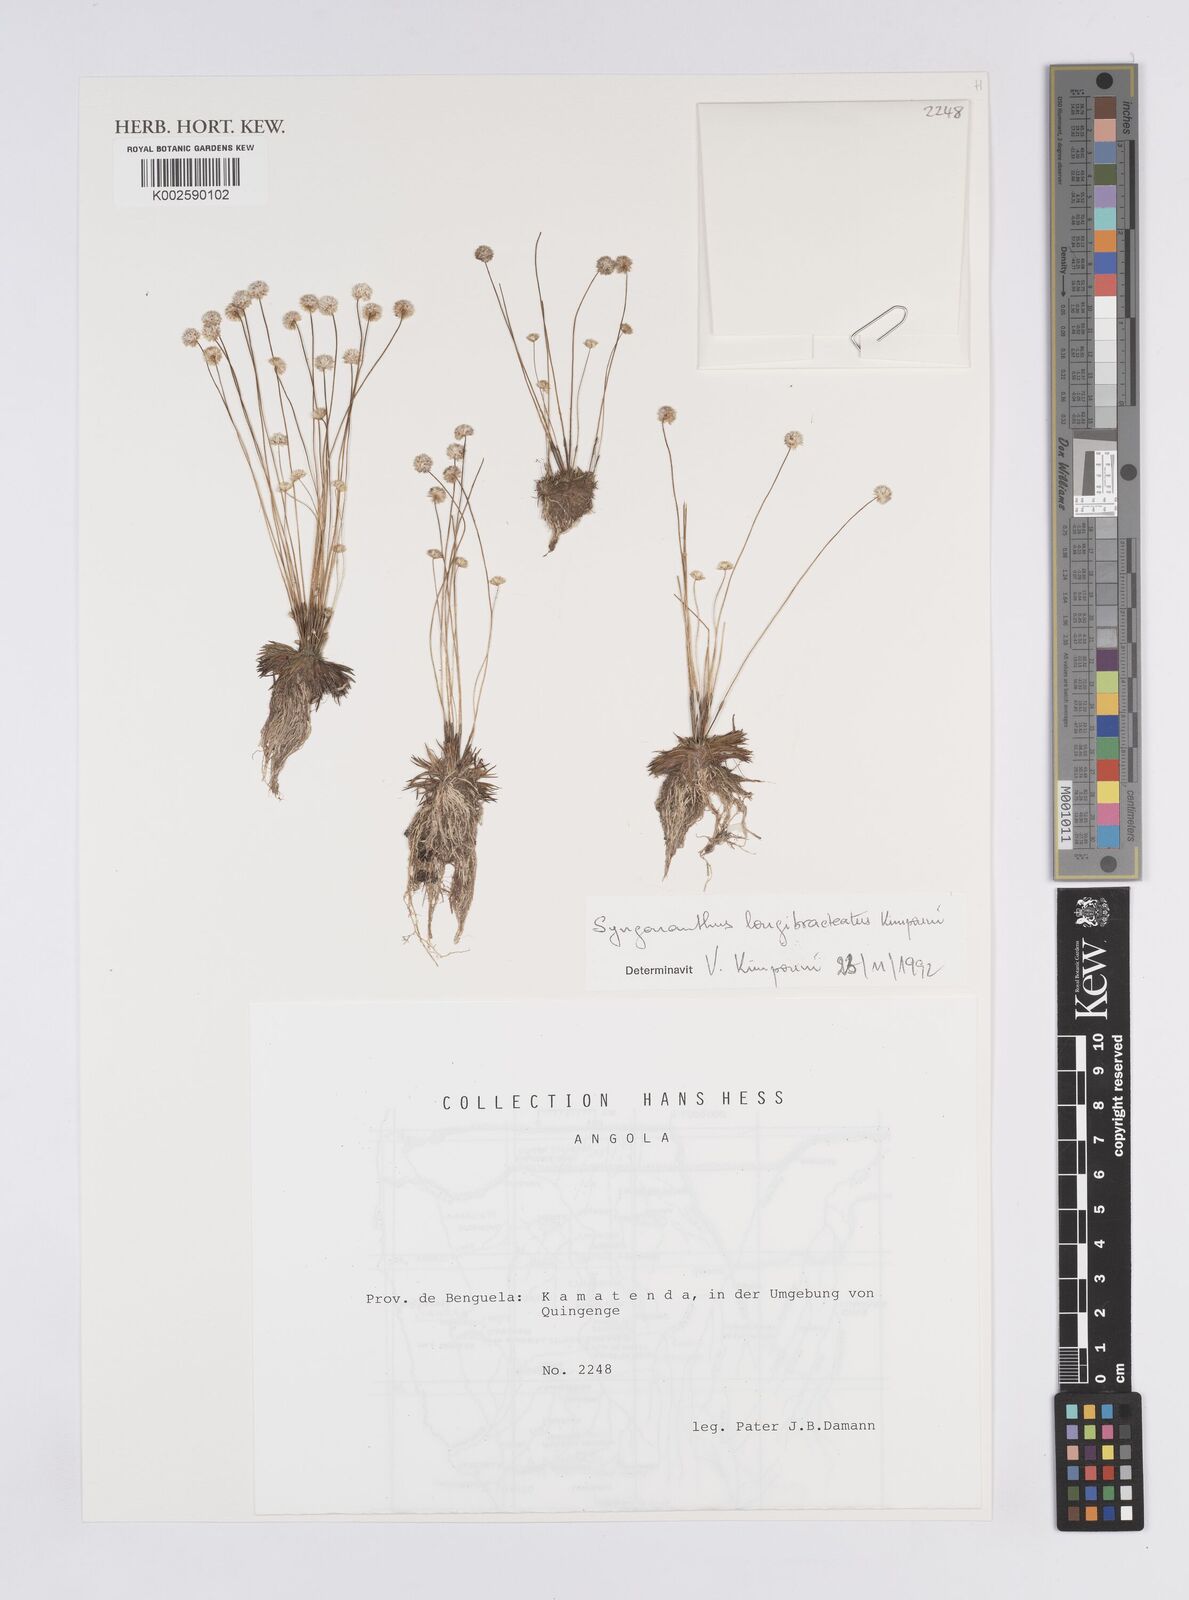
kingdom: Plantae
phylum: Tracheophyta
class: Liliopsida
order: Poales
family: Eriocaulaceae
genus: Syngonanthus
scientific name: Syngonanthus longibracteatus
